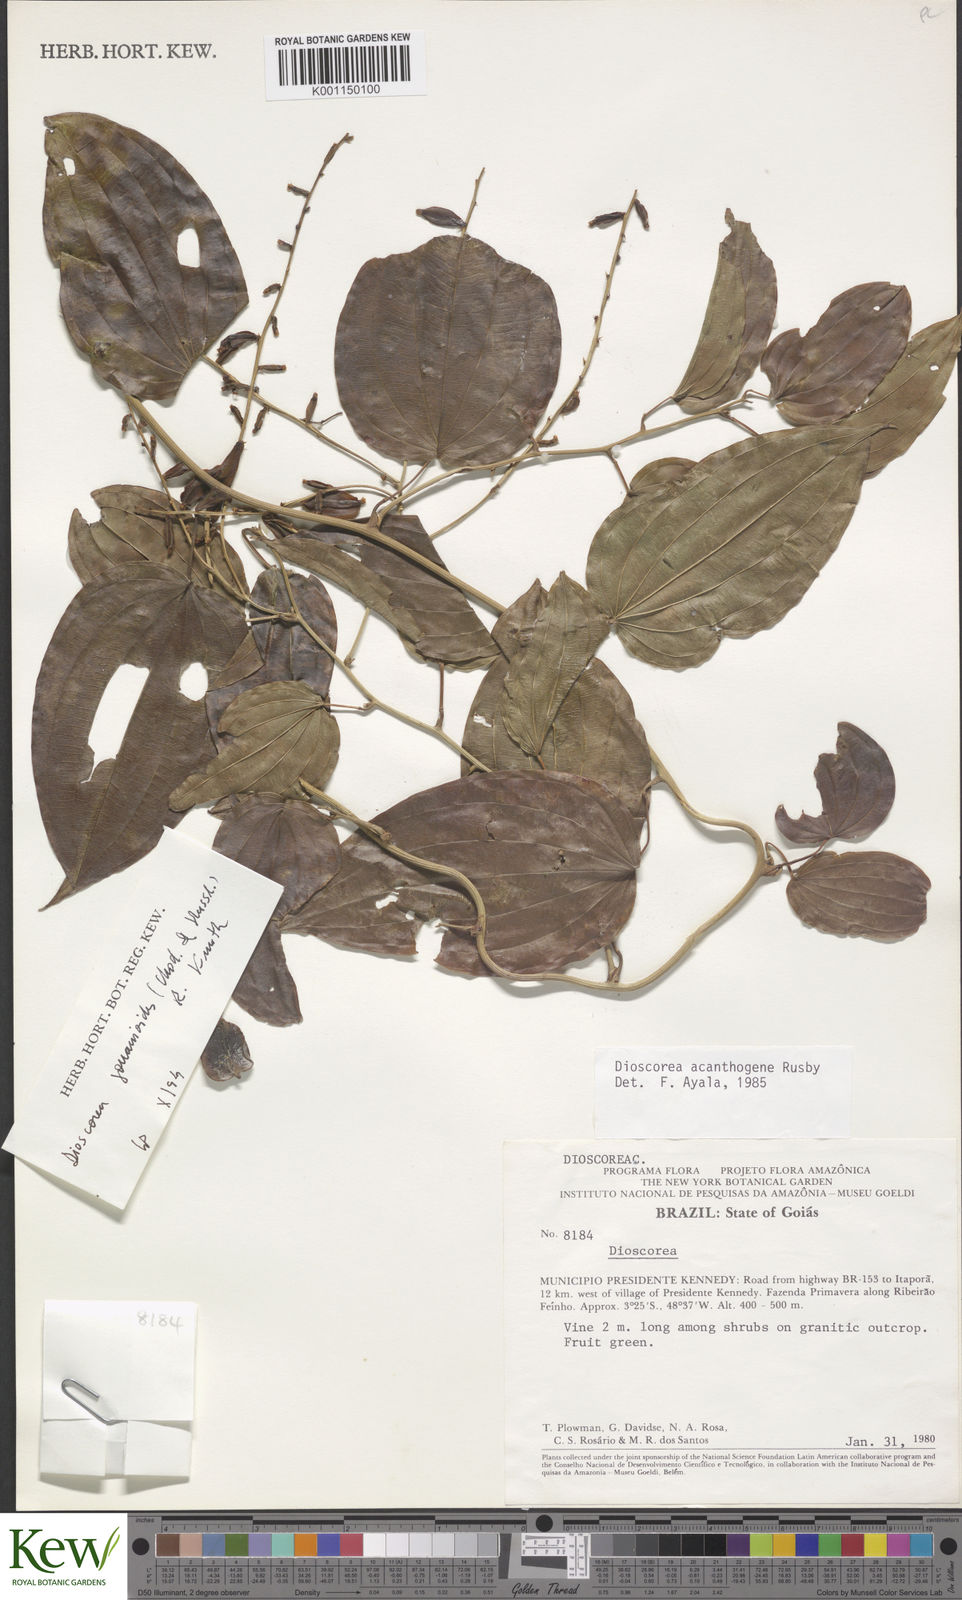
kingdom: Plantae
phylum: Tracheophyta
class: Liliopsida
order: Dioscoreales
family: Dioscoreaceae
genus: Dioscorea
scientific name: Dioscorea acanthogene
